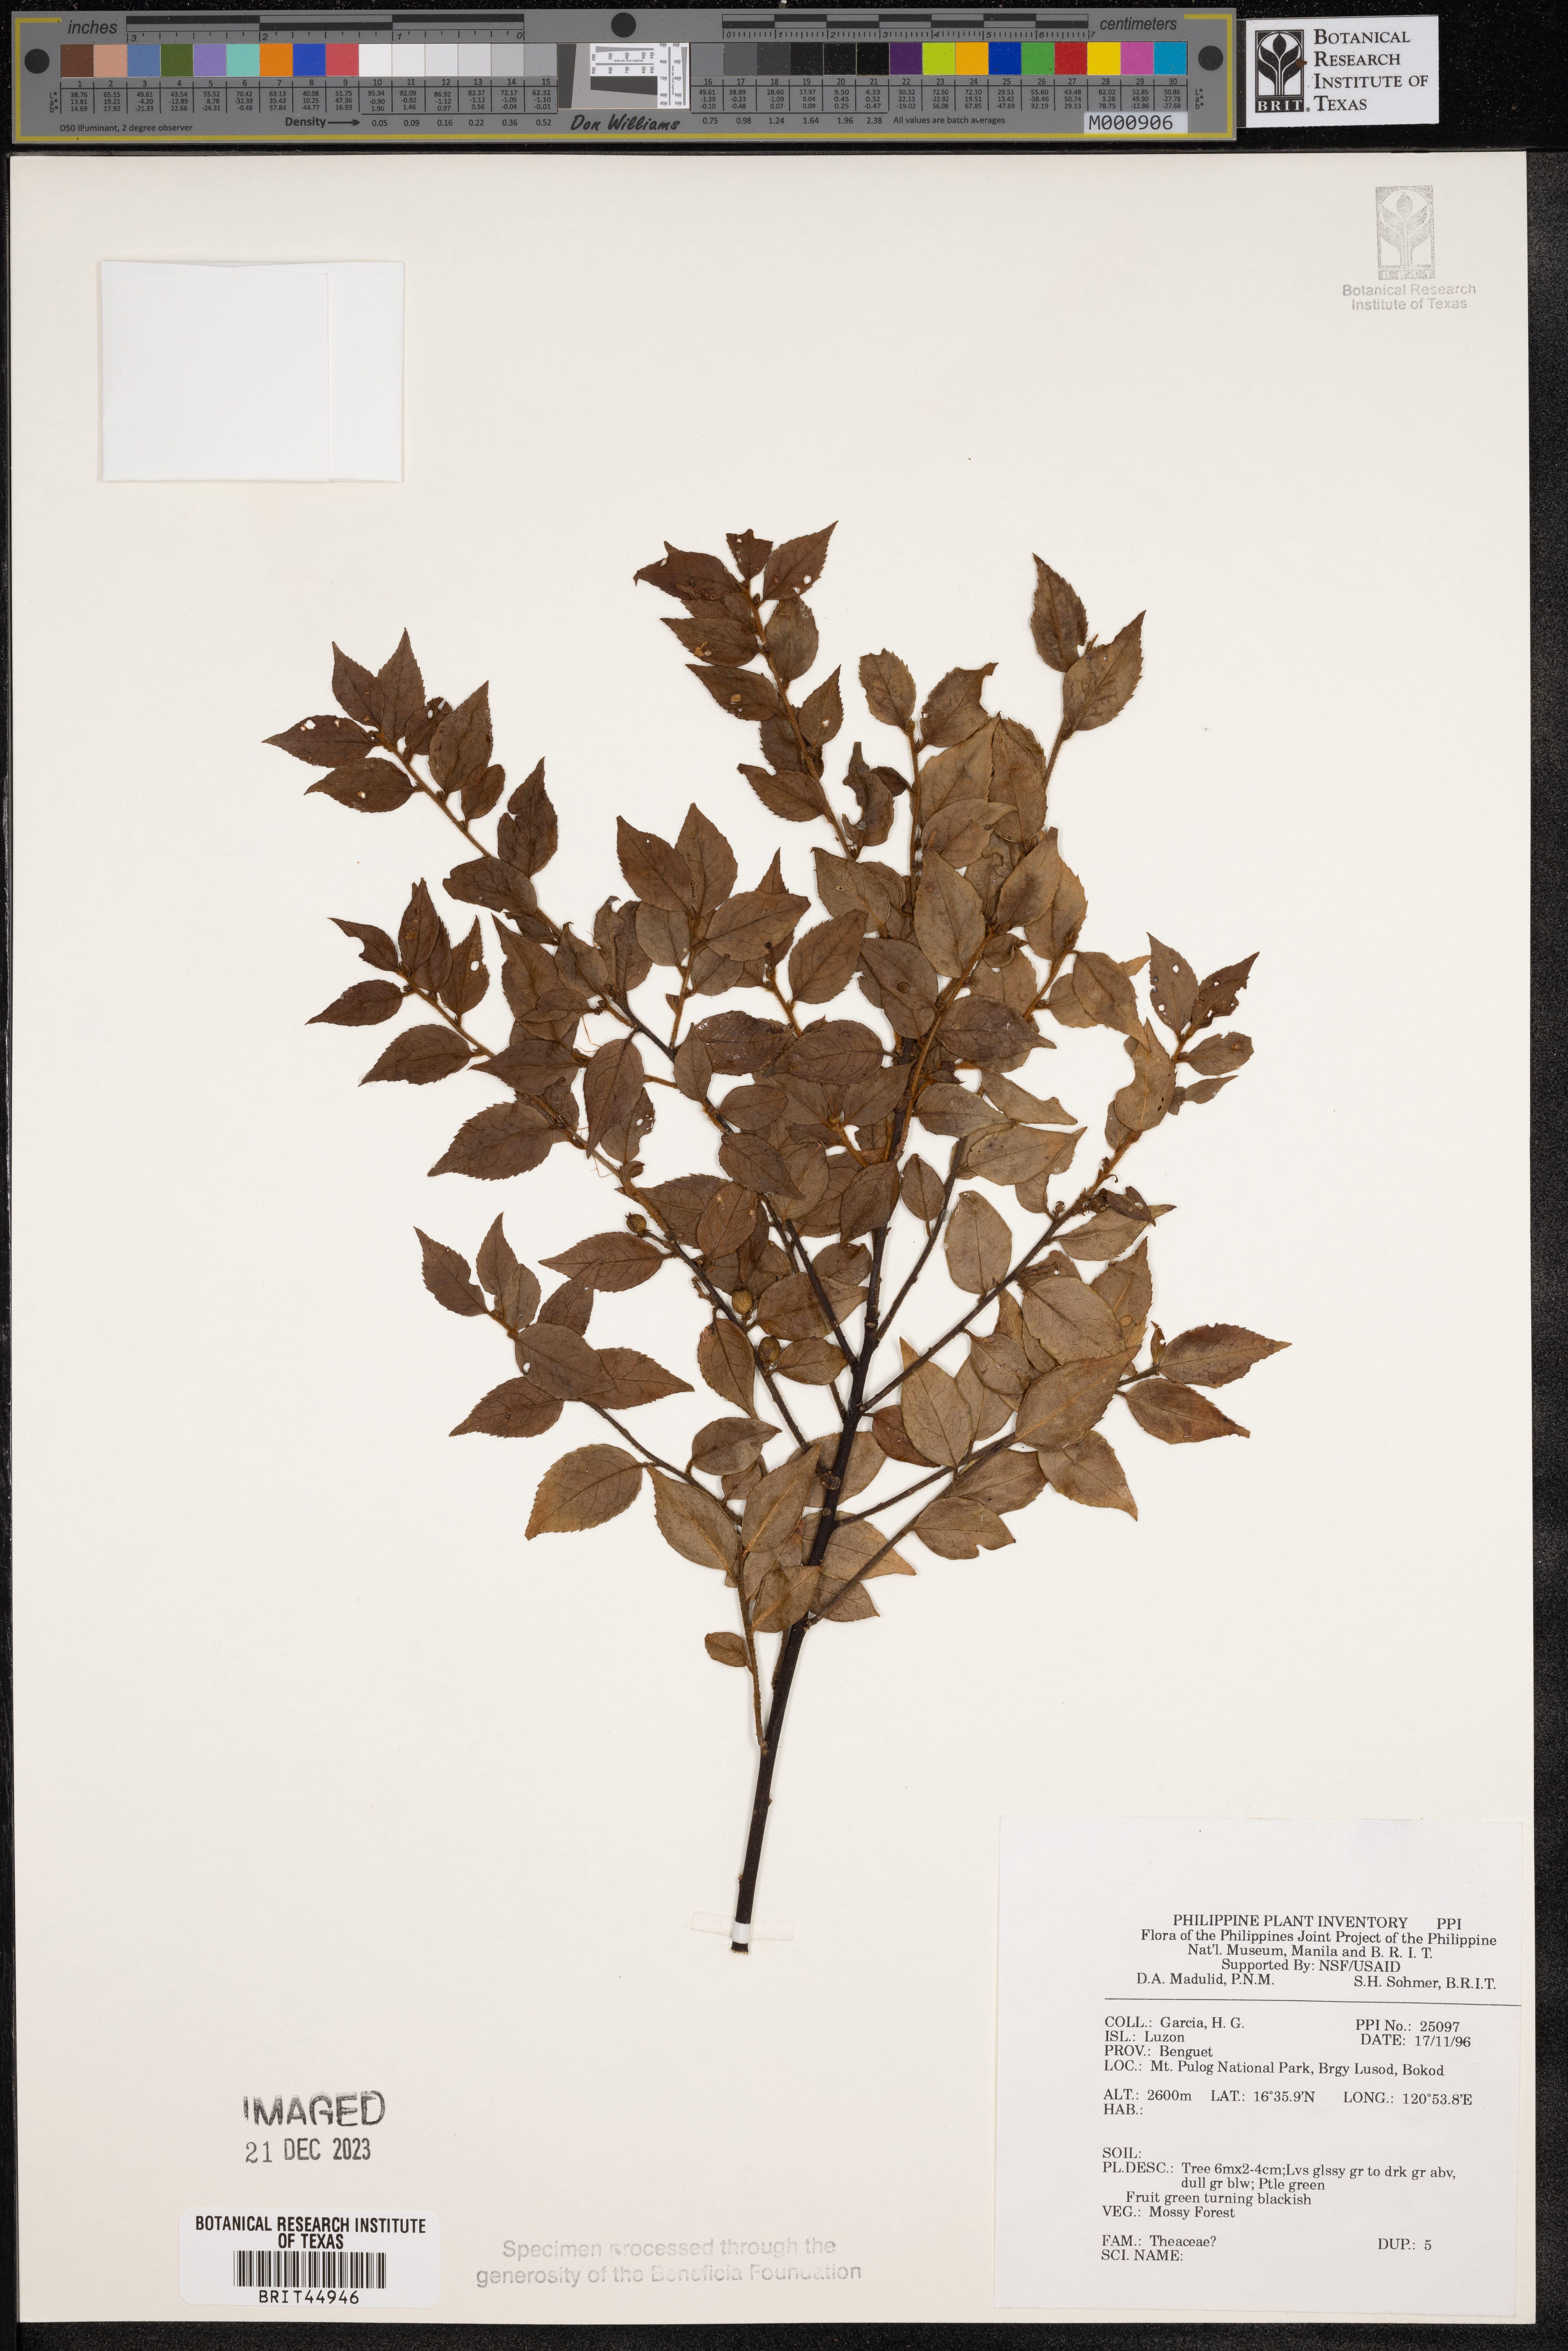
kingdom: Plantae
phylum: Tracheophyta
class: Magnoliopsida
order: Ericales
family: Theaceae
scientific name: Theaceae
